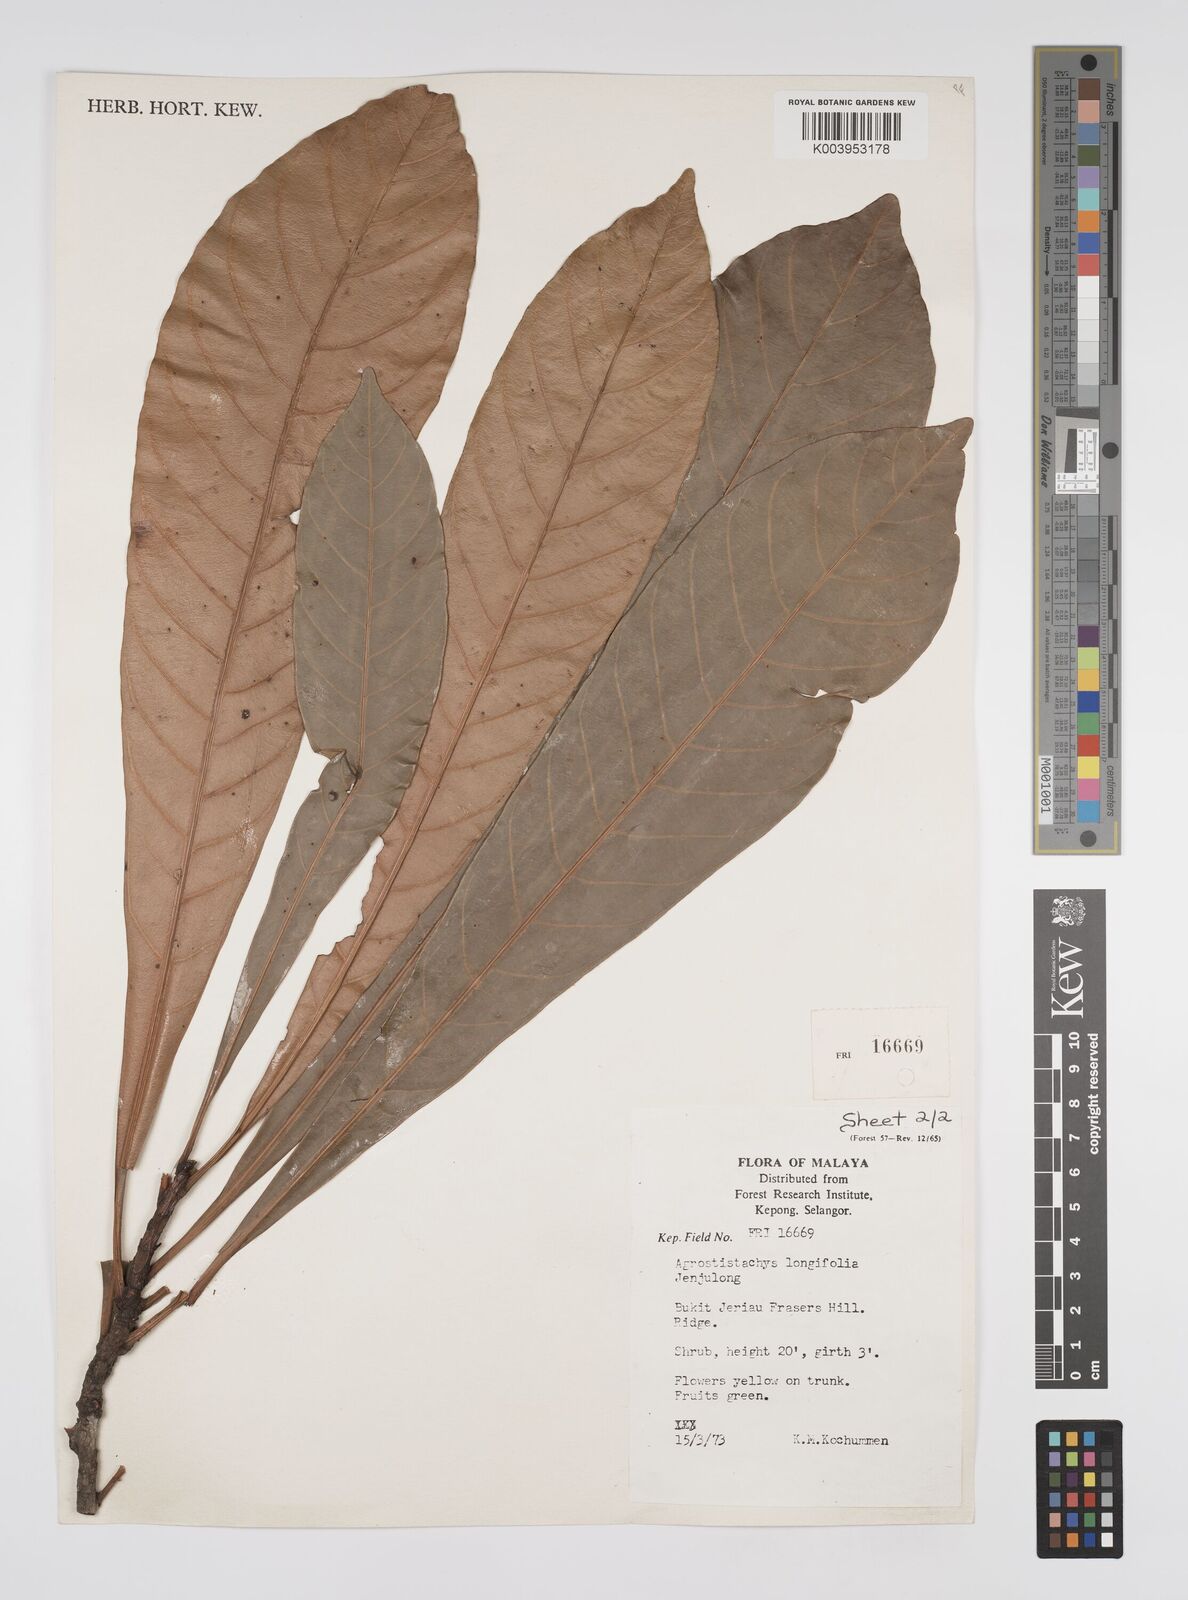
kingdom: Plantae
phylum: Tracheophyta
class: Magnoliopsida
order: Malpighiales
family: Euphorbiaceae
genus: Agrostistachys
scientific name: Agrostistachys borneensis
